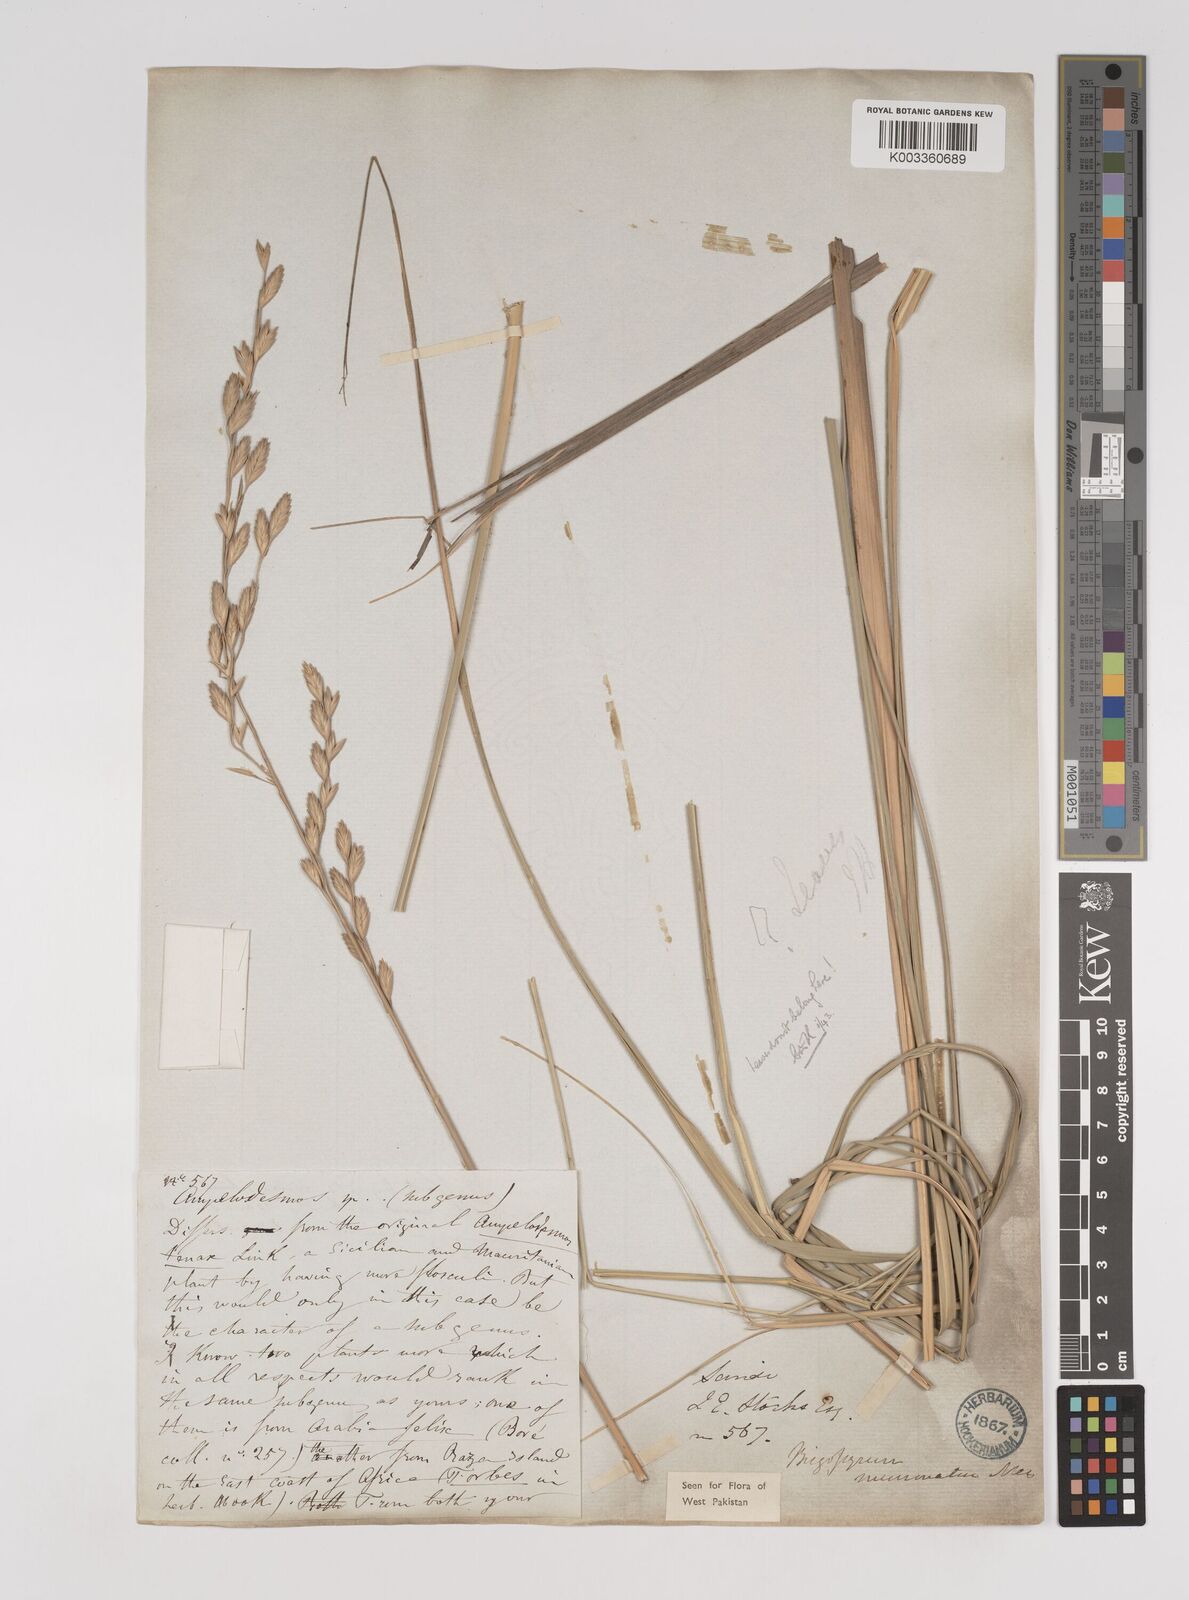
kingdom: Plantae
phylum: Tracheophyta
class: Liliopsida
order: Poales
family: Poaceae
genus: Halopyrum
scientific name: Halopyrum mucronatum
